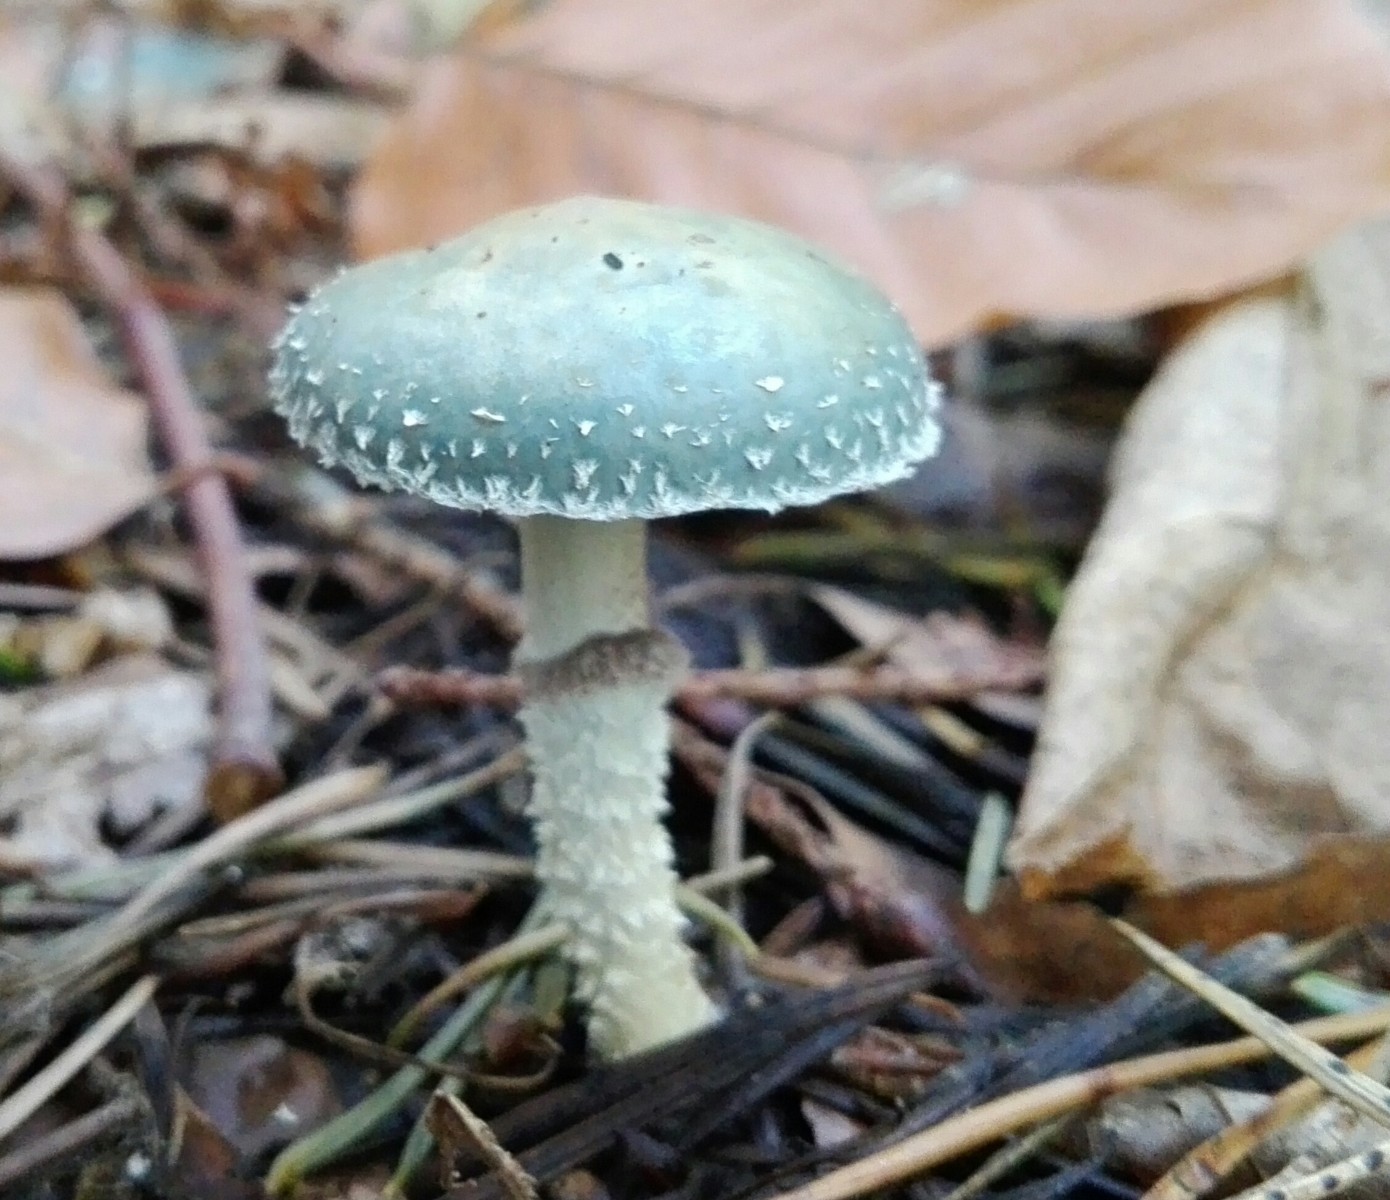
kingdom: Fungi
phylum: Basidiomycota
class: Agaricomycetes
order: Agaricales
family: Strophariaceae
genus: Stropharia
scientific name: Stropharia aeruginosa
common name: spanskgrøn bredblad
